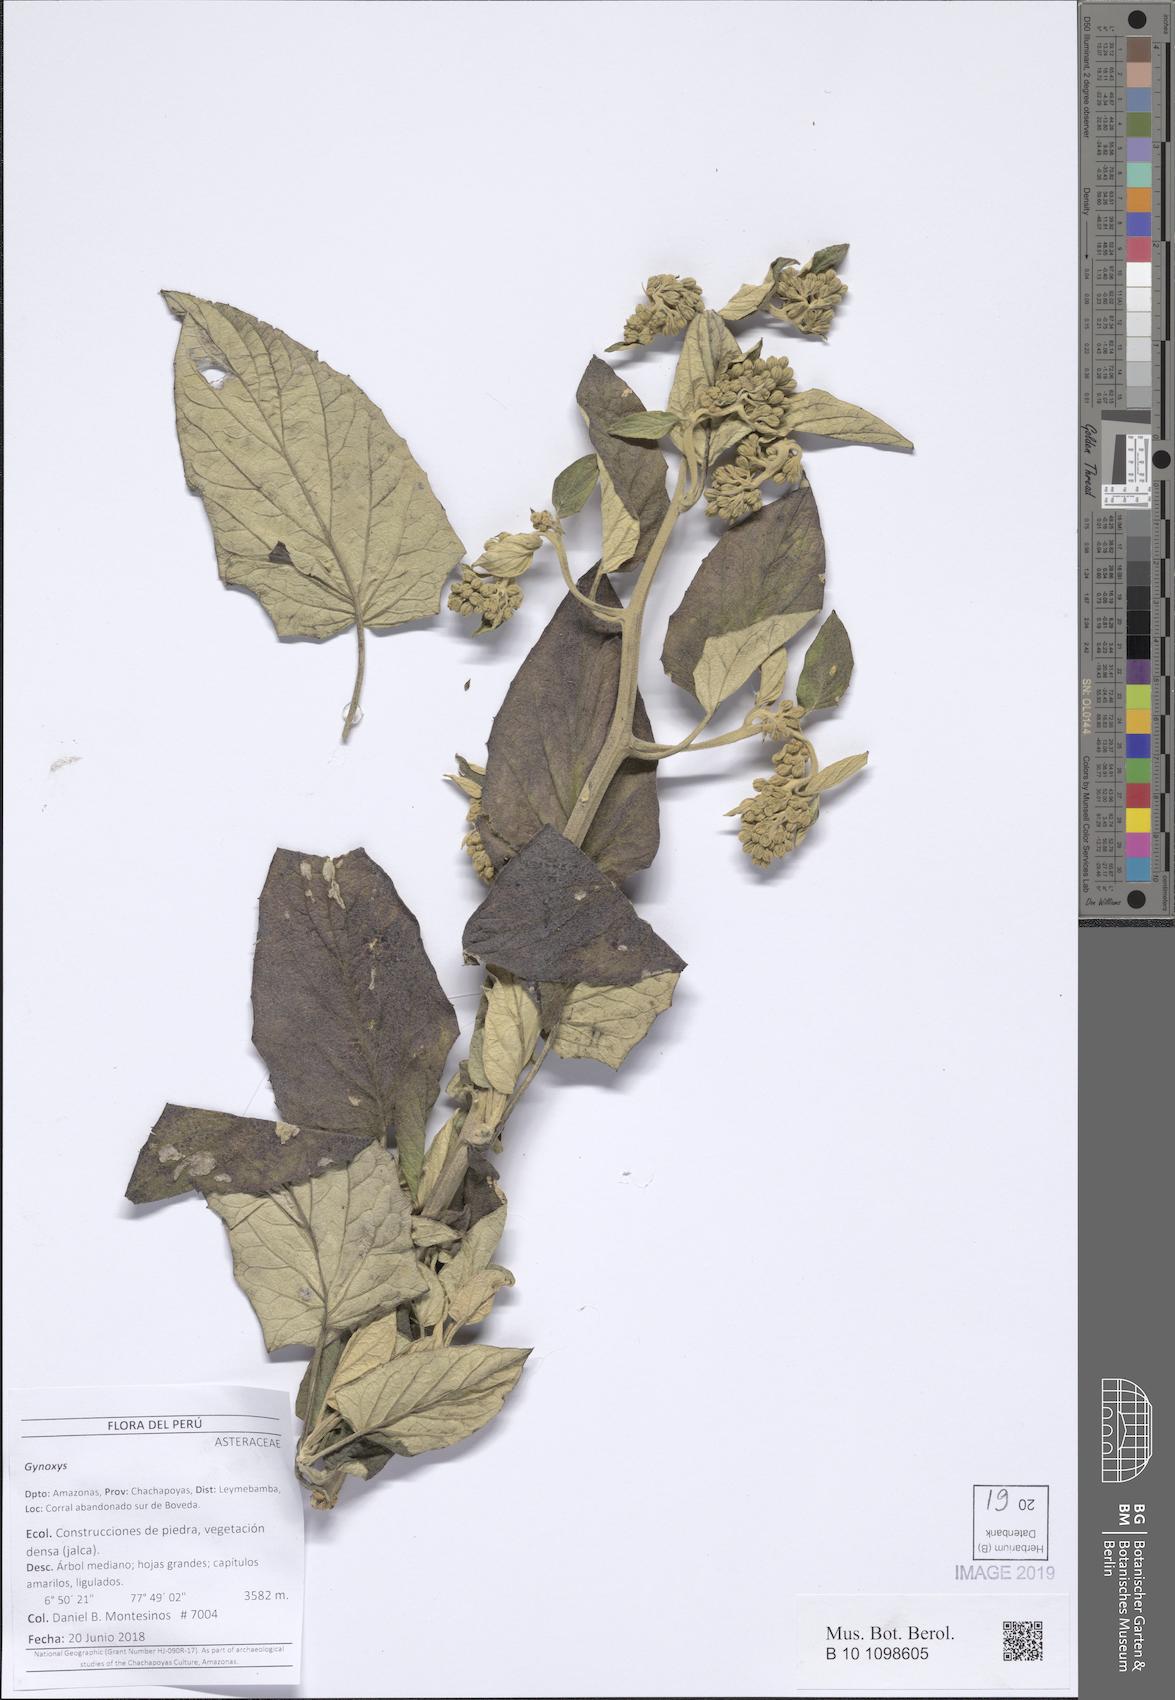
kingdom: Plantae
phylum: Tracheophyta
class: Magnoliopsida
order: Asterales
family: Asteraceae
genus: Gynoxys
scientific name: Gynoxys
